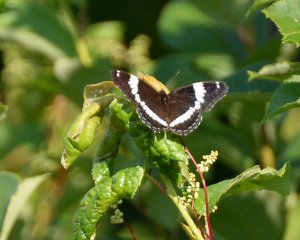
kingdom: Animalia
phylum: Arthropoda
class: Insecta
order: Lepidoptera
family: Nymphalidae
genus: Limenitis
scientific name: Limenitis arthemis
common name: Red-spotted Admiral
